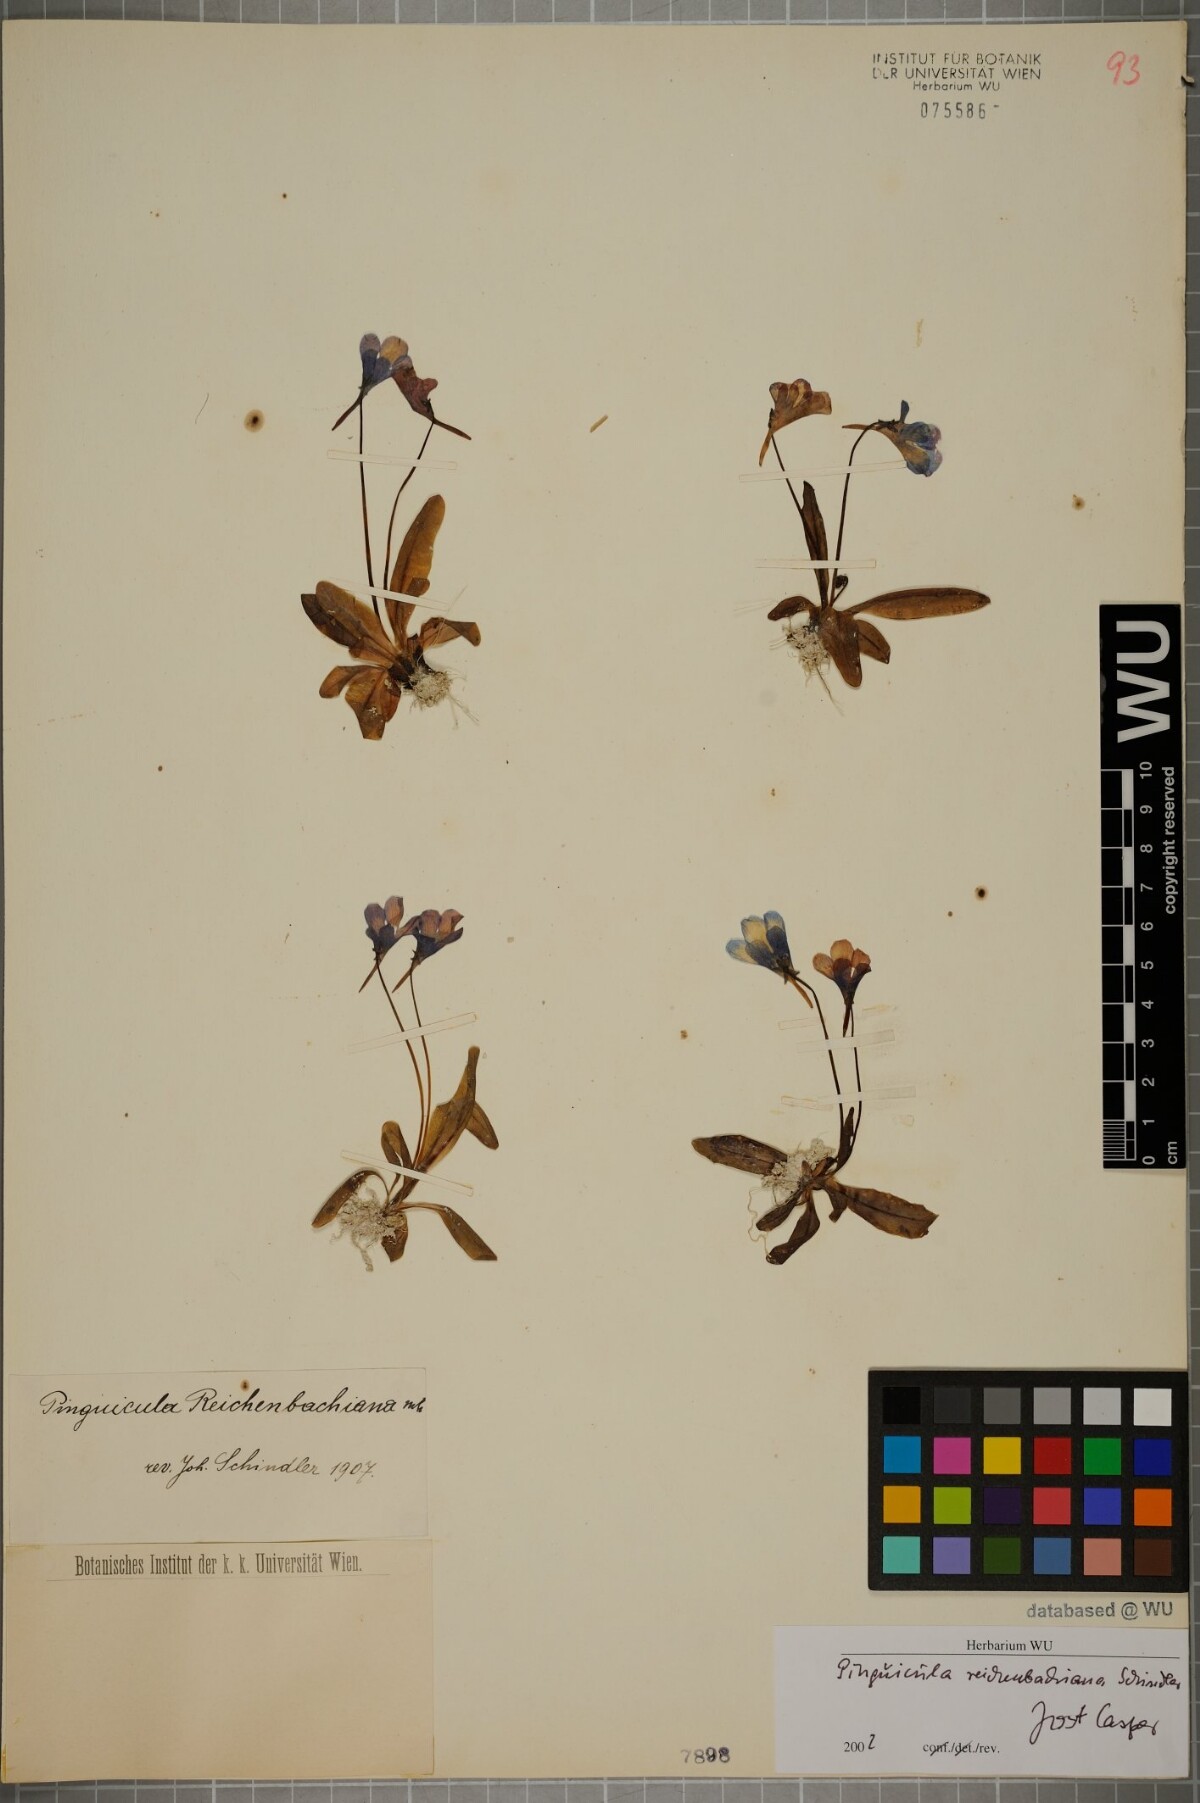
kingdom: Plantae
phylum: Tracheophyta
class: Magnoliopsida
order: Lamiales
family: Lentibulariaceae
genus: Pinguicula
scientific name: Pinguicula longifolia
